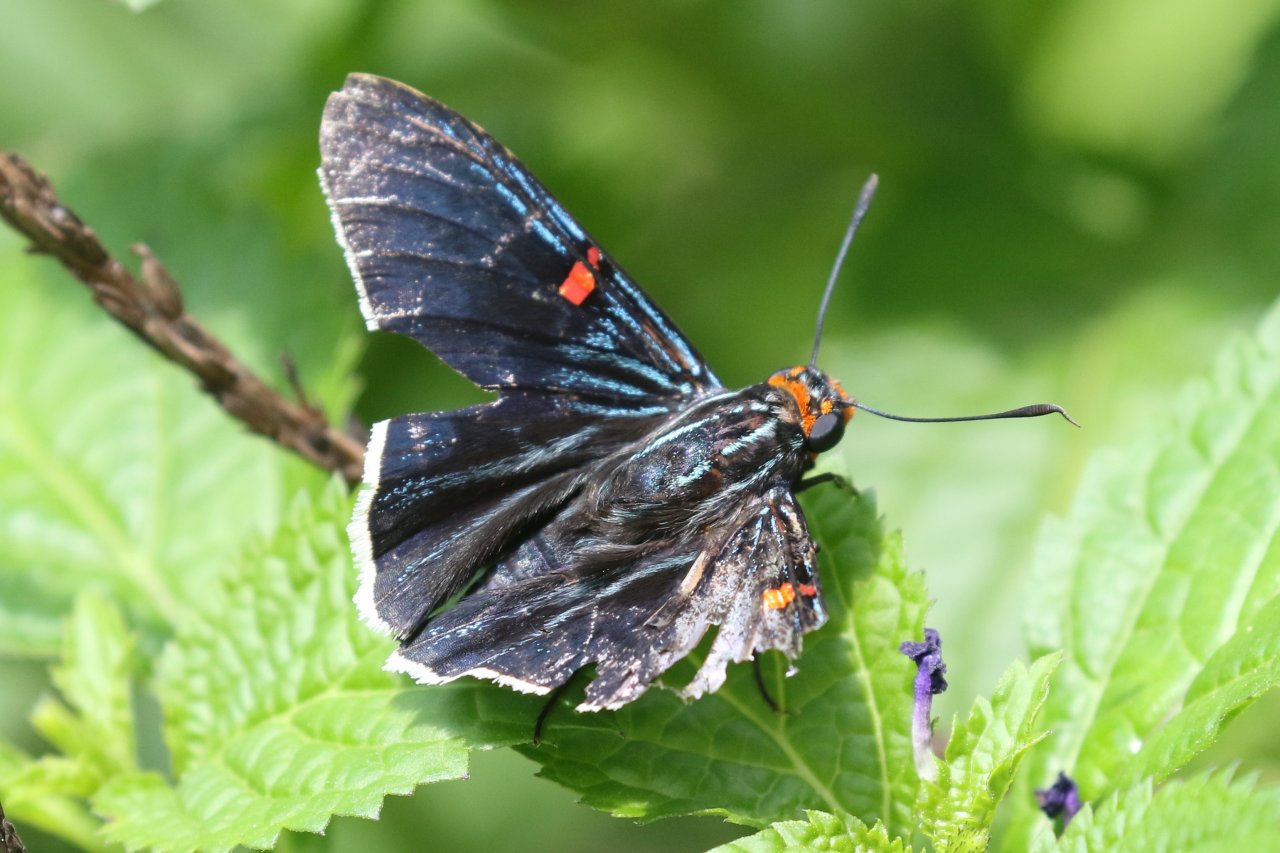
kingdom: Animalia
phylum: Arthropoda
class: Insecta
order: Lepidoptera
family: Hesperiidae
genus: Phocides
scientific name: Phocides polybius
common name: Guava Skipper
